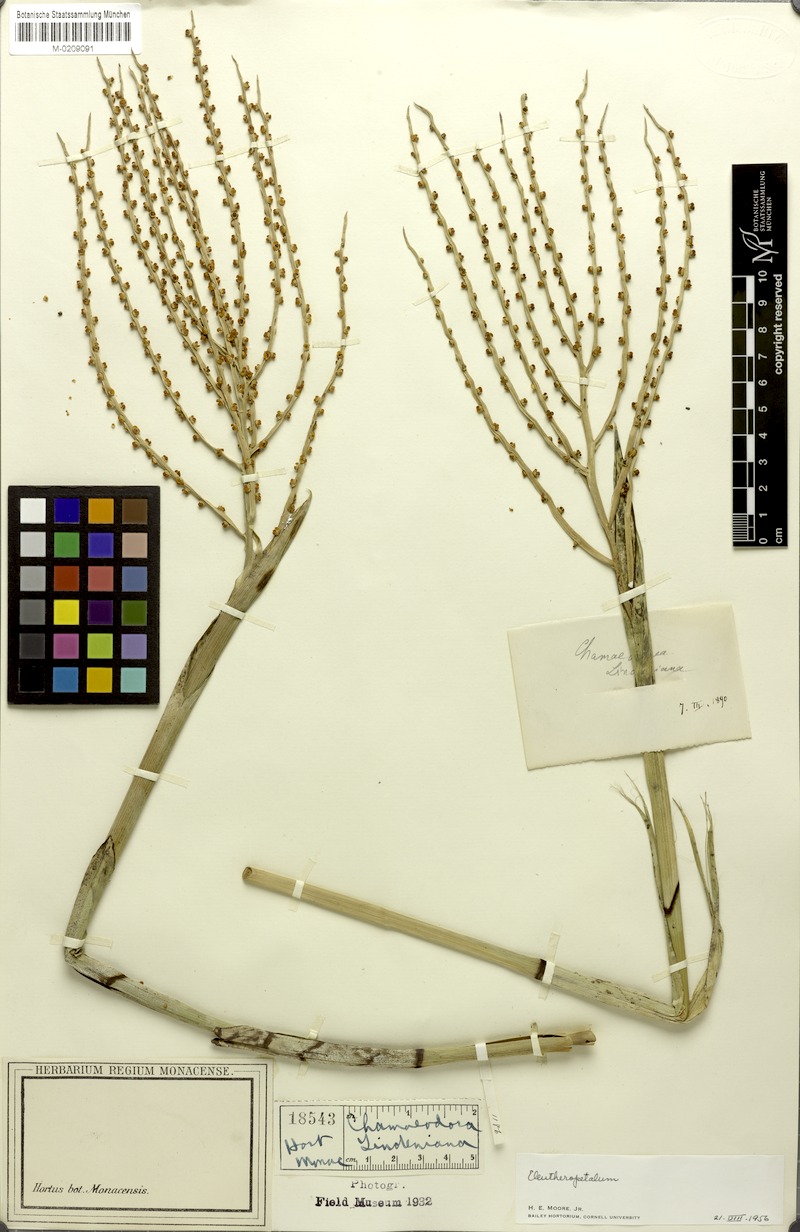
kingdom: Plantae
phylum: Tracheophyta
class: Liliopsida
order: Arecales
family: Arecaceae
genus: Chamaedorea
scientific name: Chamaedorea linearis
